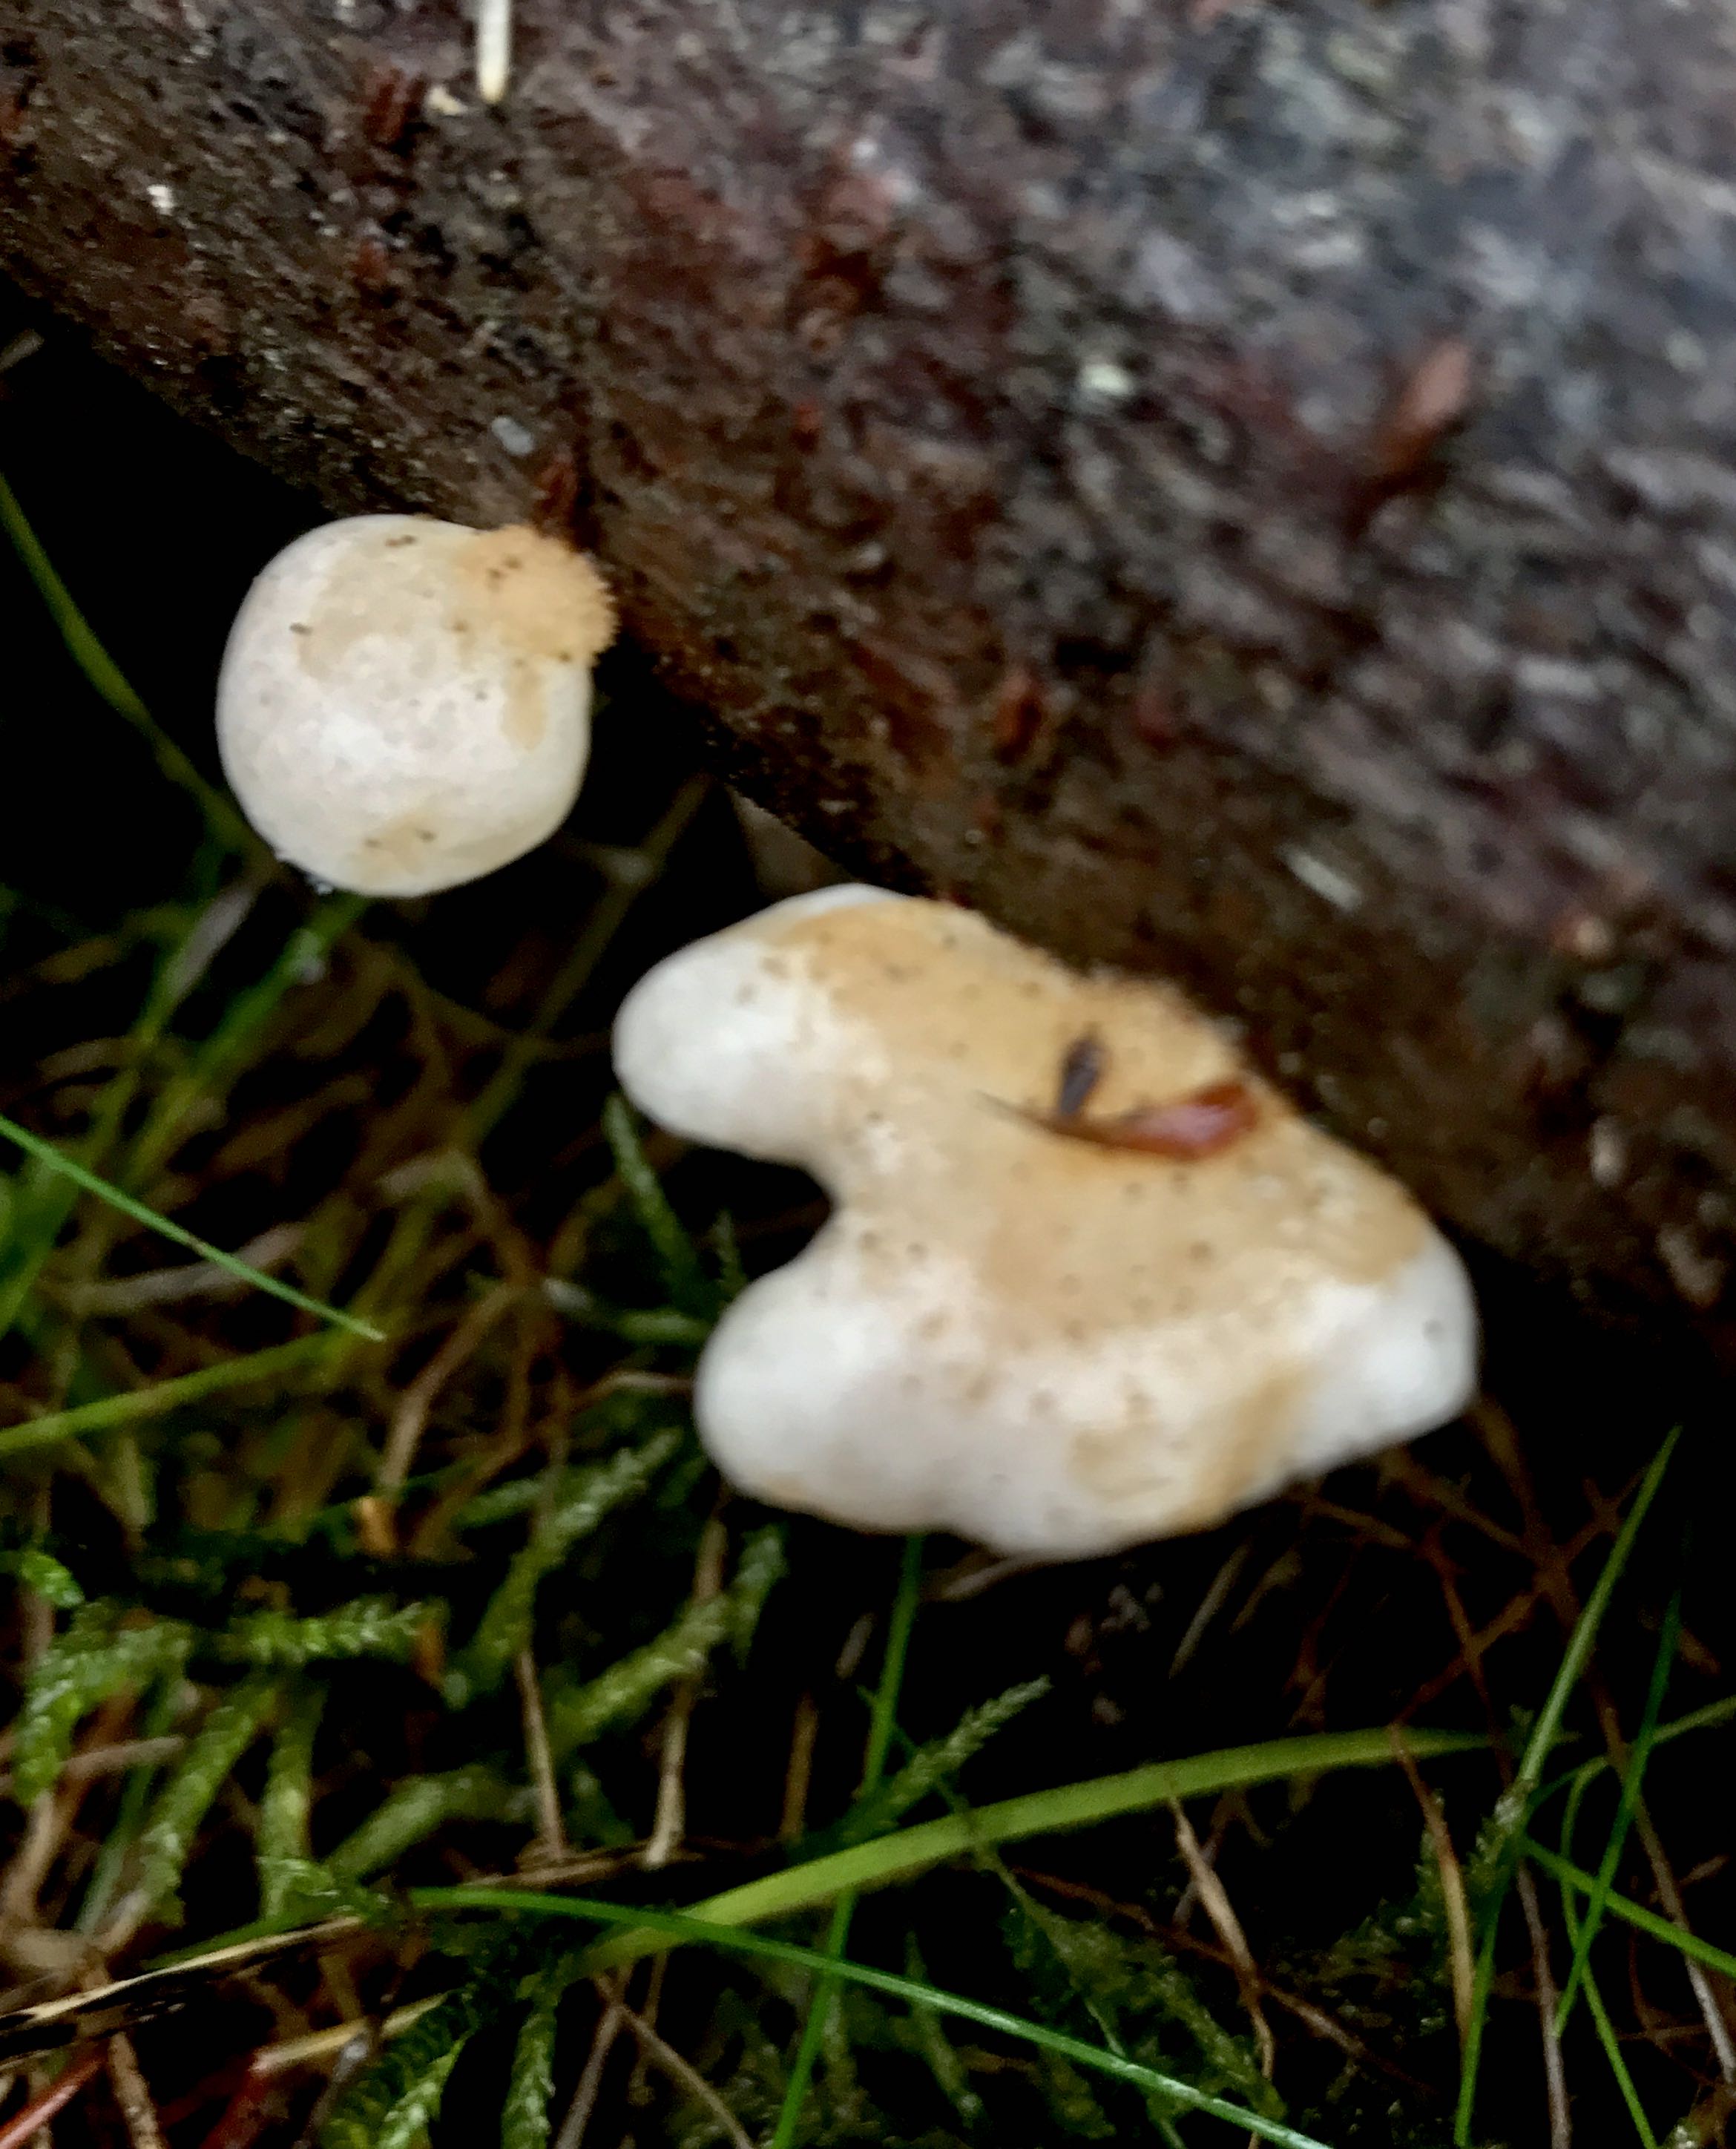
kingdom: Fungi
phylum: Basidiomycota
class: Agaricomycetes
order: Agaricales
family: Mycenaceae
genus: Panellus
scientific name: Panellus mitis
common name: mild epaulethat
